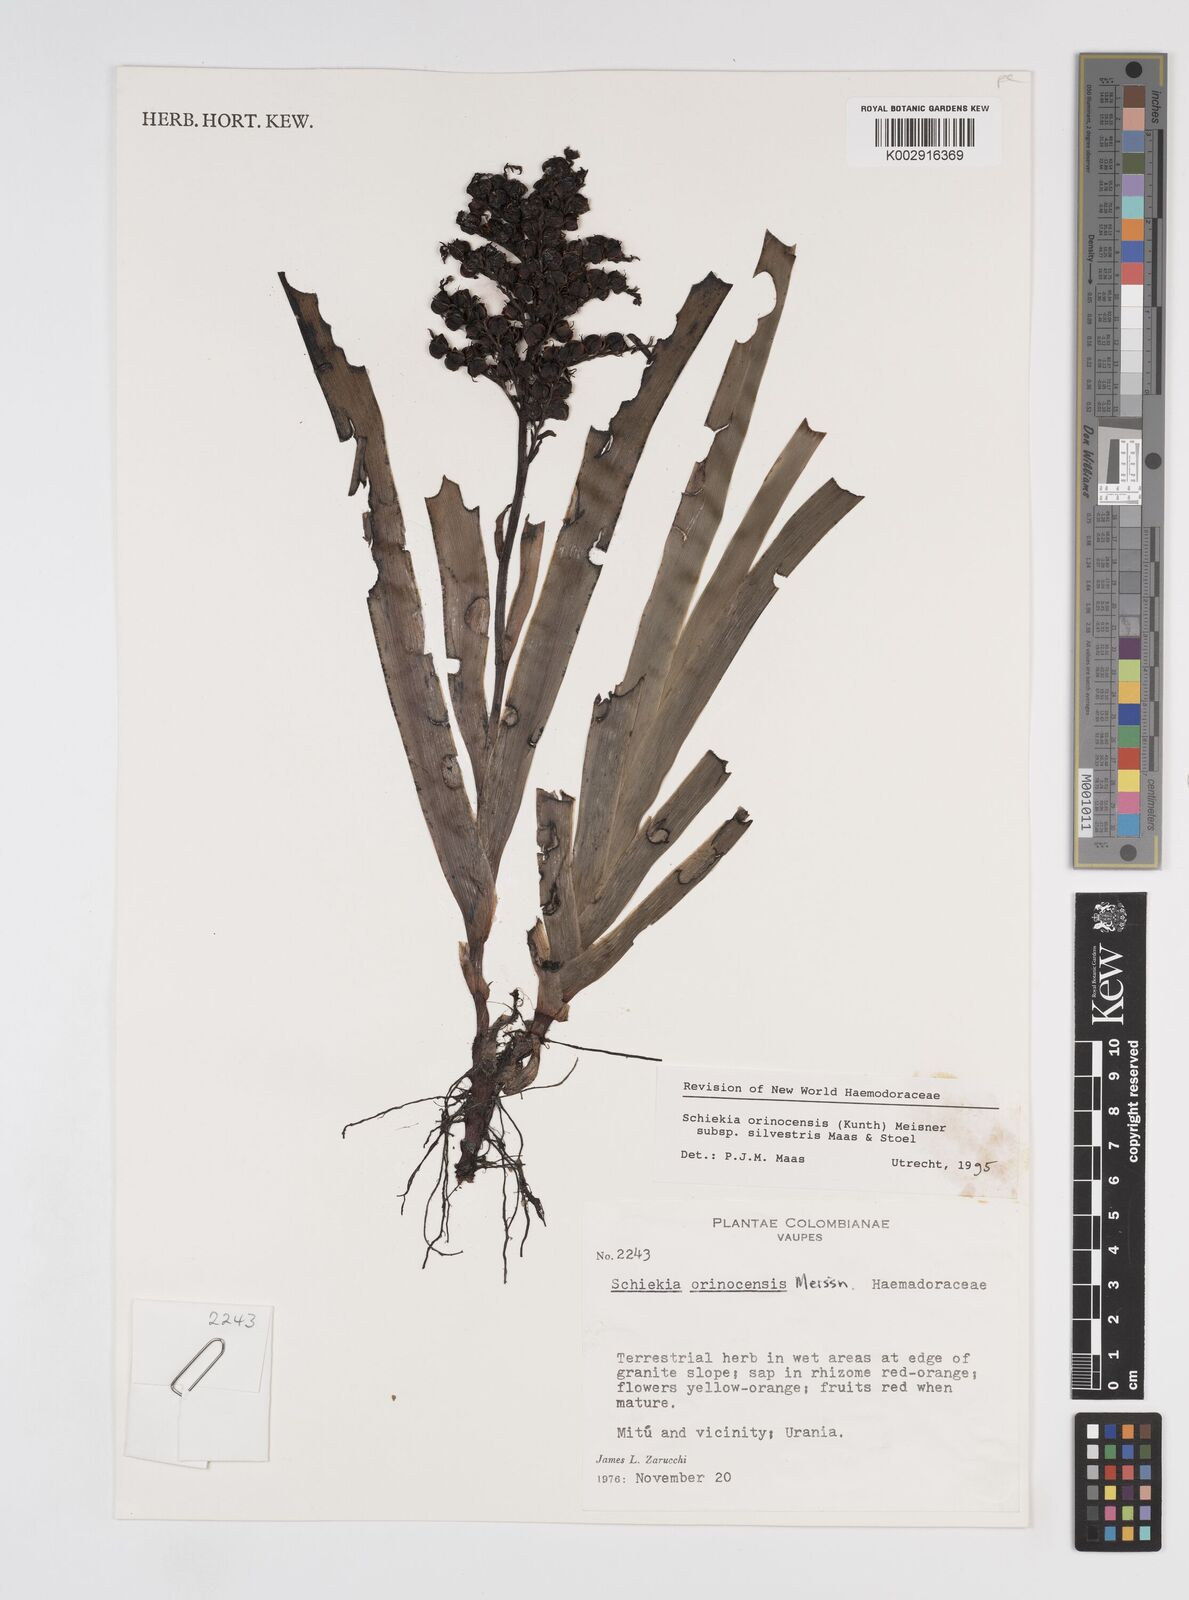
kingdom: Plantae
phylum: Tracheophyta
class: Liliopsida
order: Commelinales
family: Haemodoraceae
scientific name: Haemodoraceae
